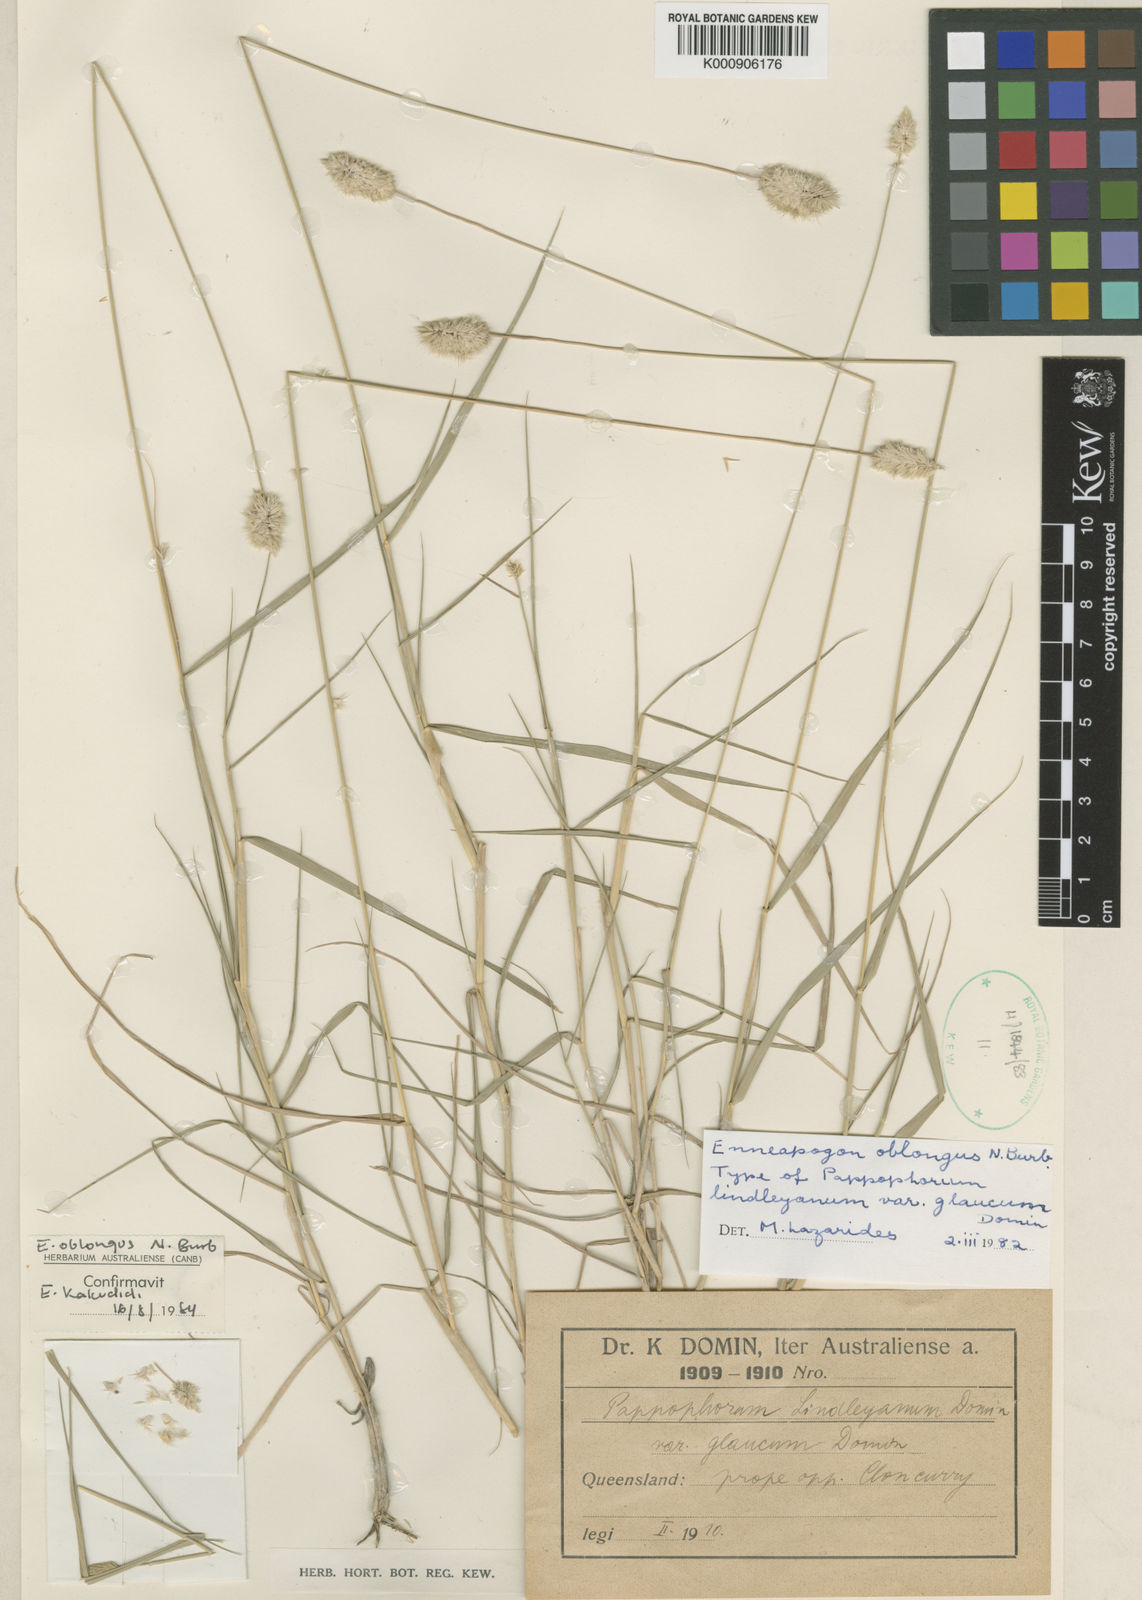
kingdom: Plantae
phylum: Tracheophyta
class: Liliopsida
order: Poales
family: Poaceae
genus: Enneapogon
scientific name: Enneapogon lindleyanus
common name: Conetop nineawn
